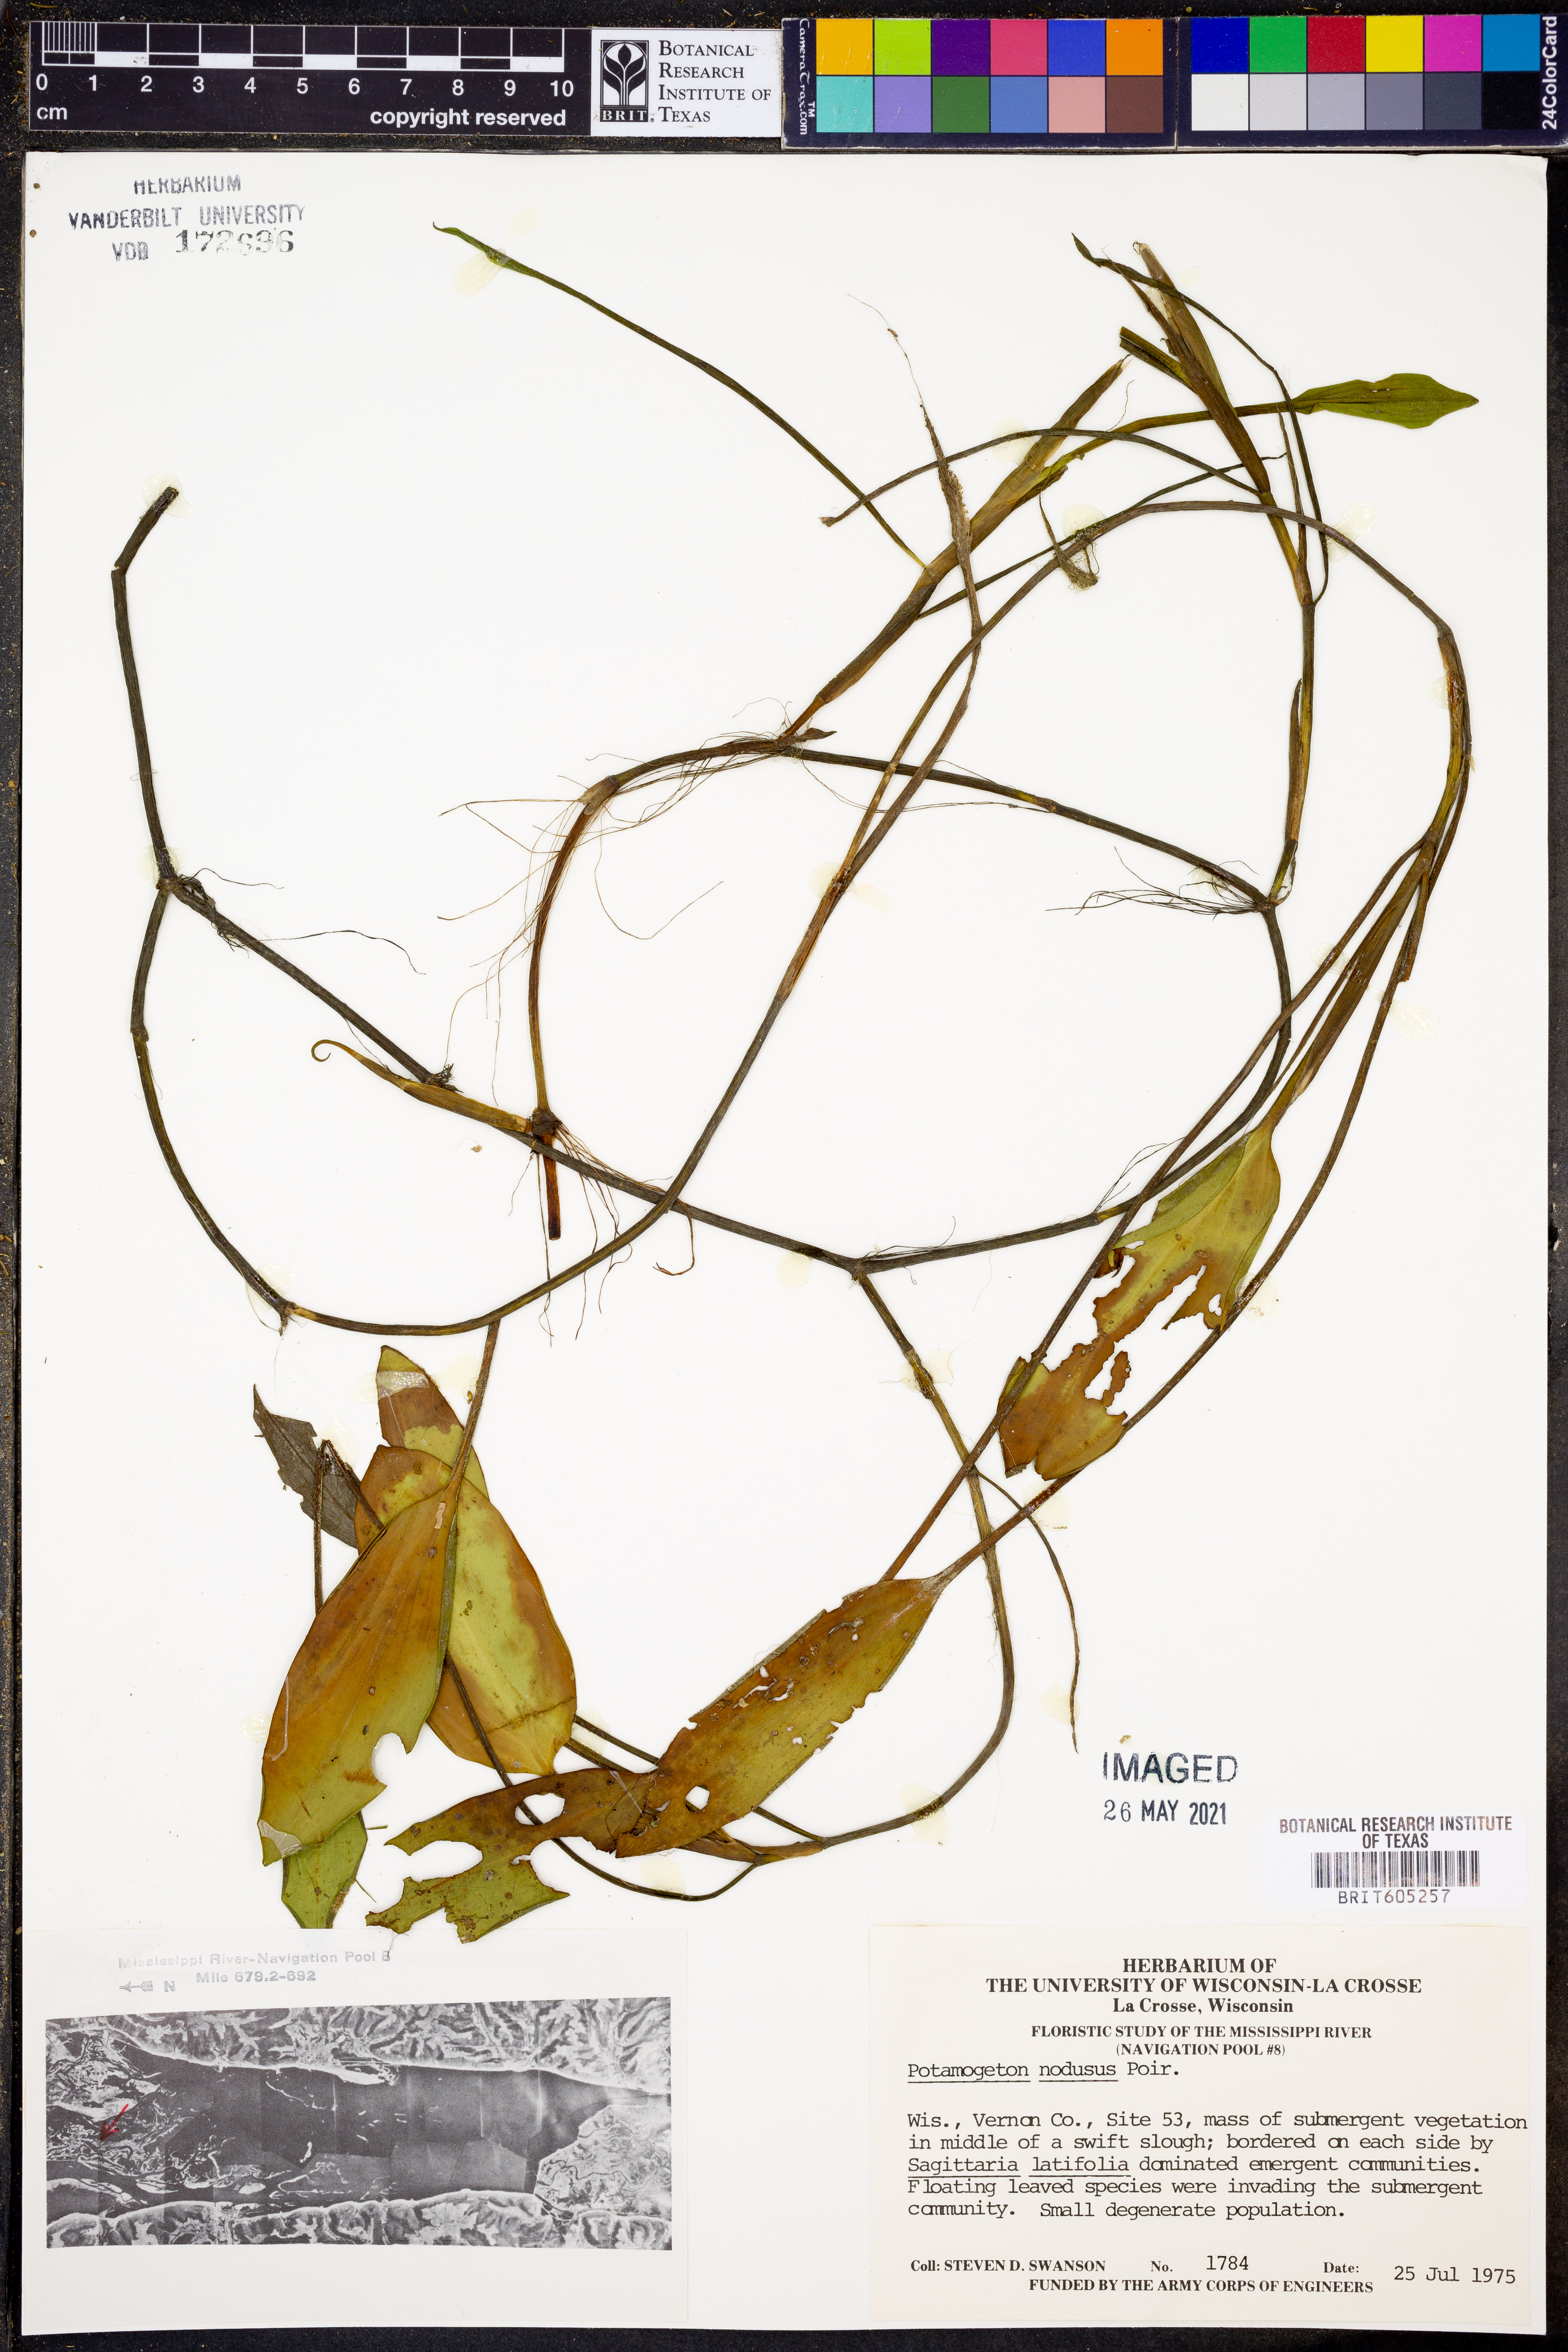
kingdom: Plantae
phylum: Tracheophyta
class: Liliopsida
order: Alismatales
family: Potamogetonaceae
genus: Potamogeton
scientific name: Potamogeton nodosus
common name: Loddon pondweed
